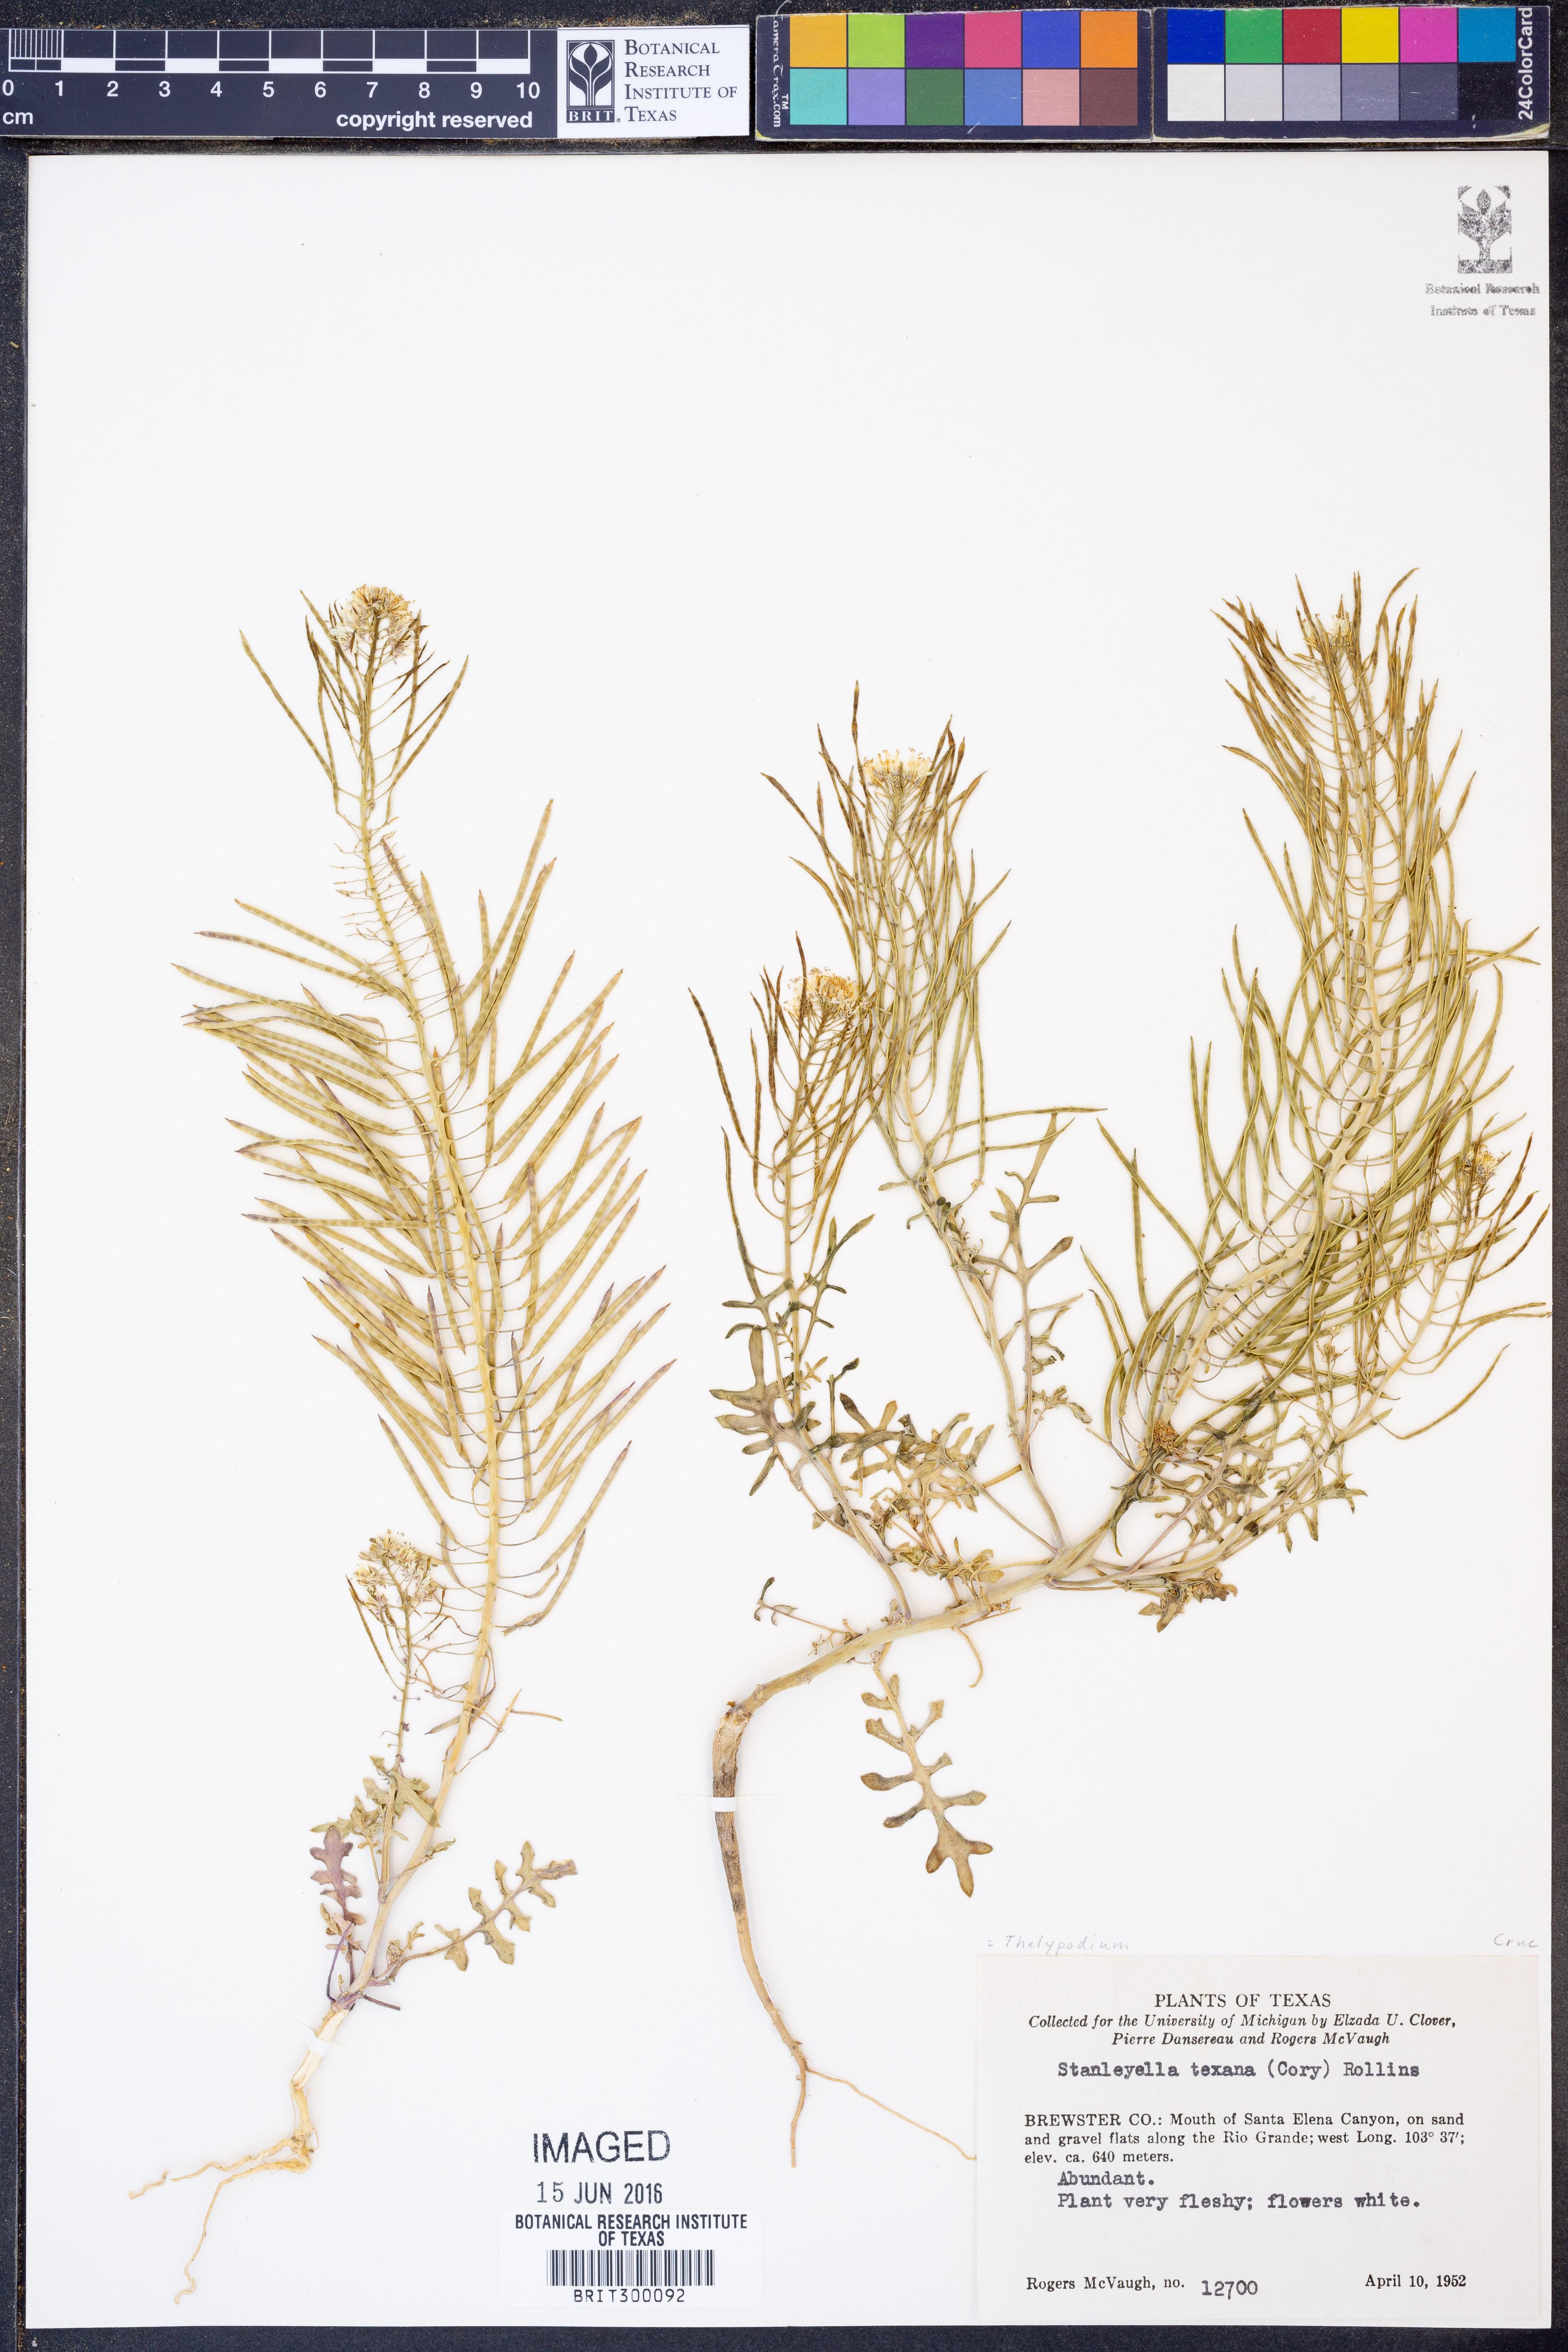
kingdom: Plantae
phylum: Tracheophyta
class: Magnoliopsida
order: Brassicales
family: Brassicaceae
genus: Thelypodium
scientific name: Thelypodium texanum
